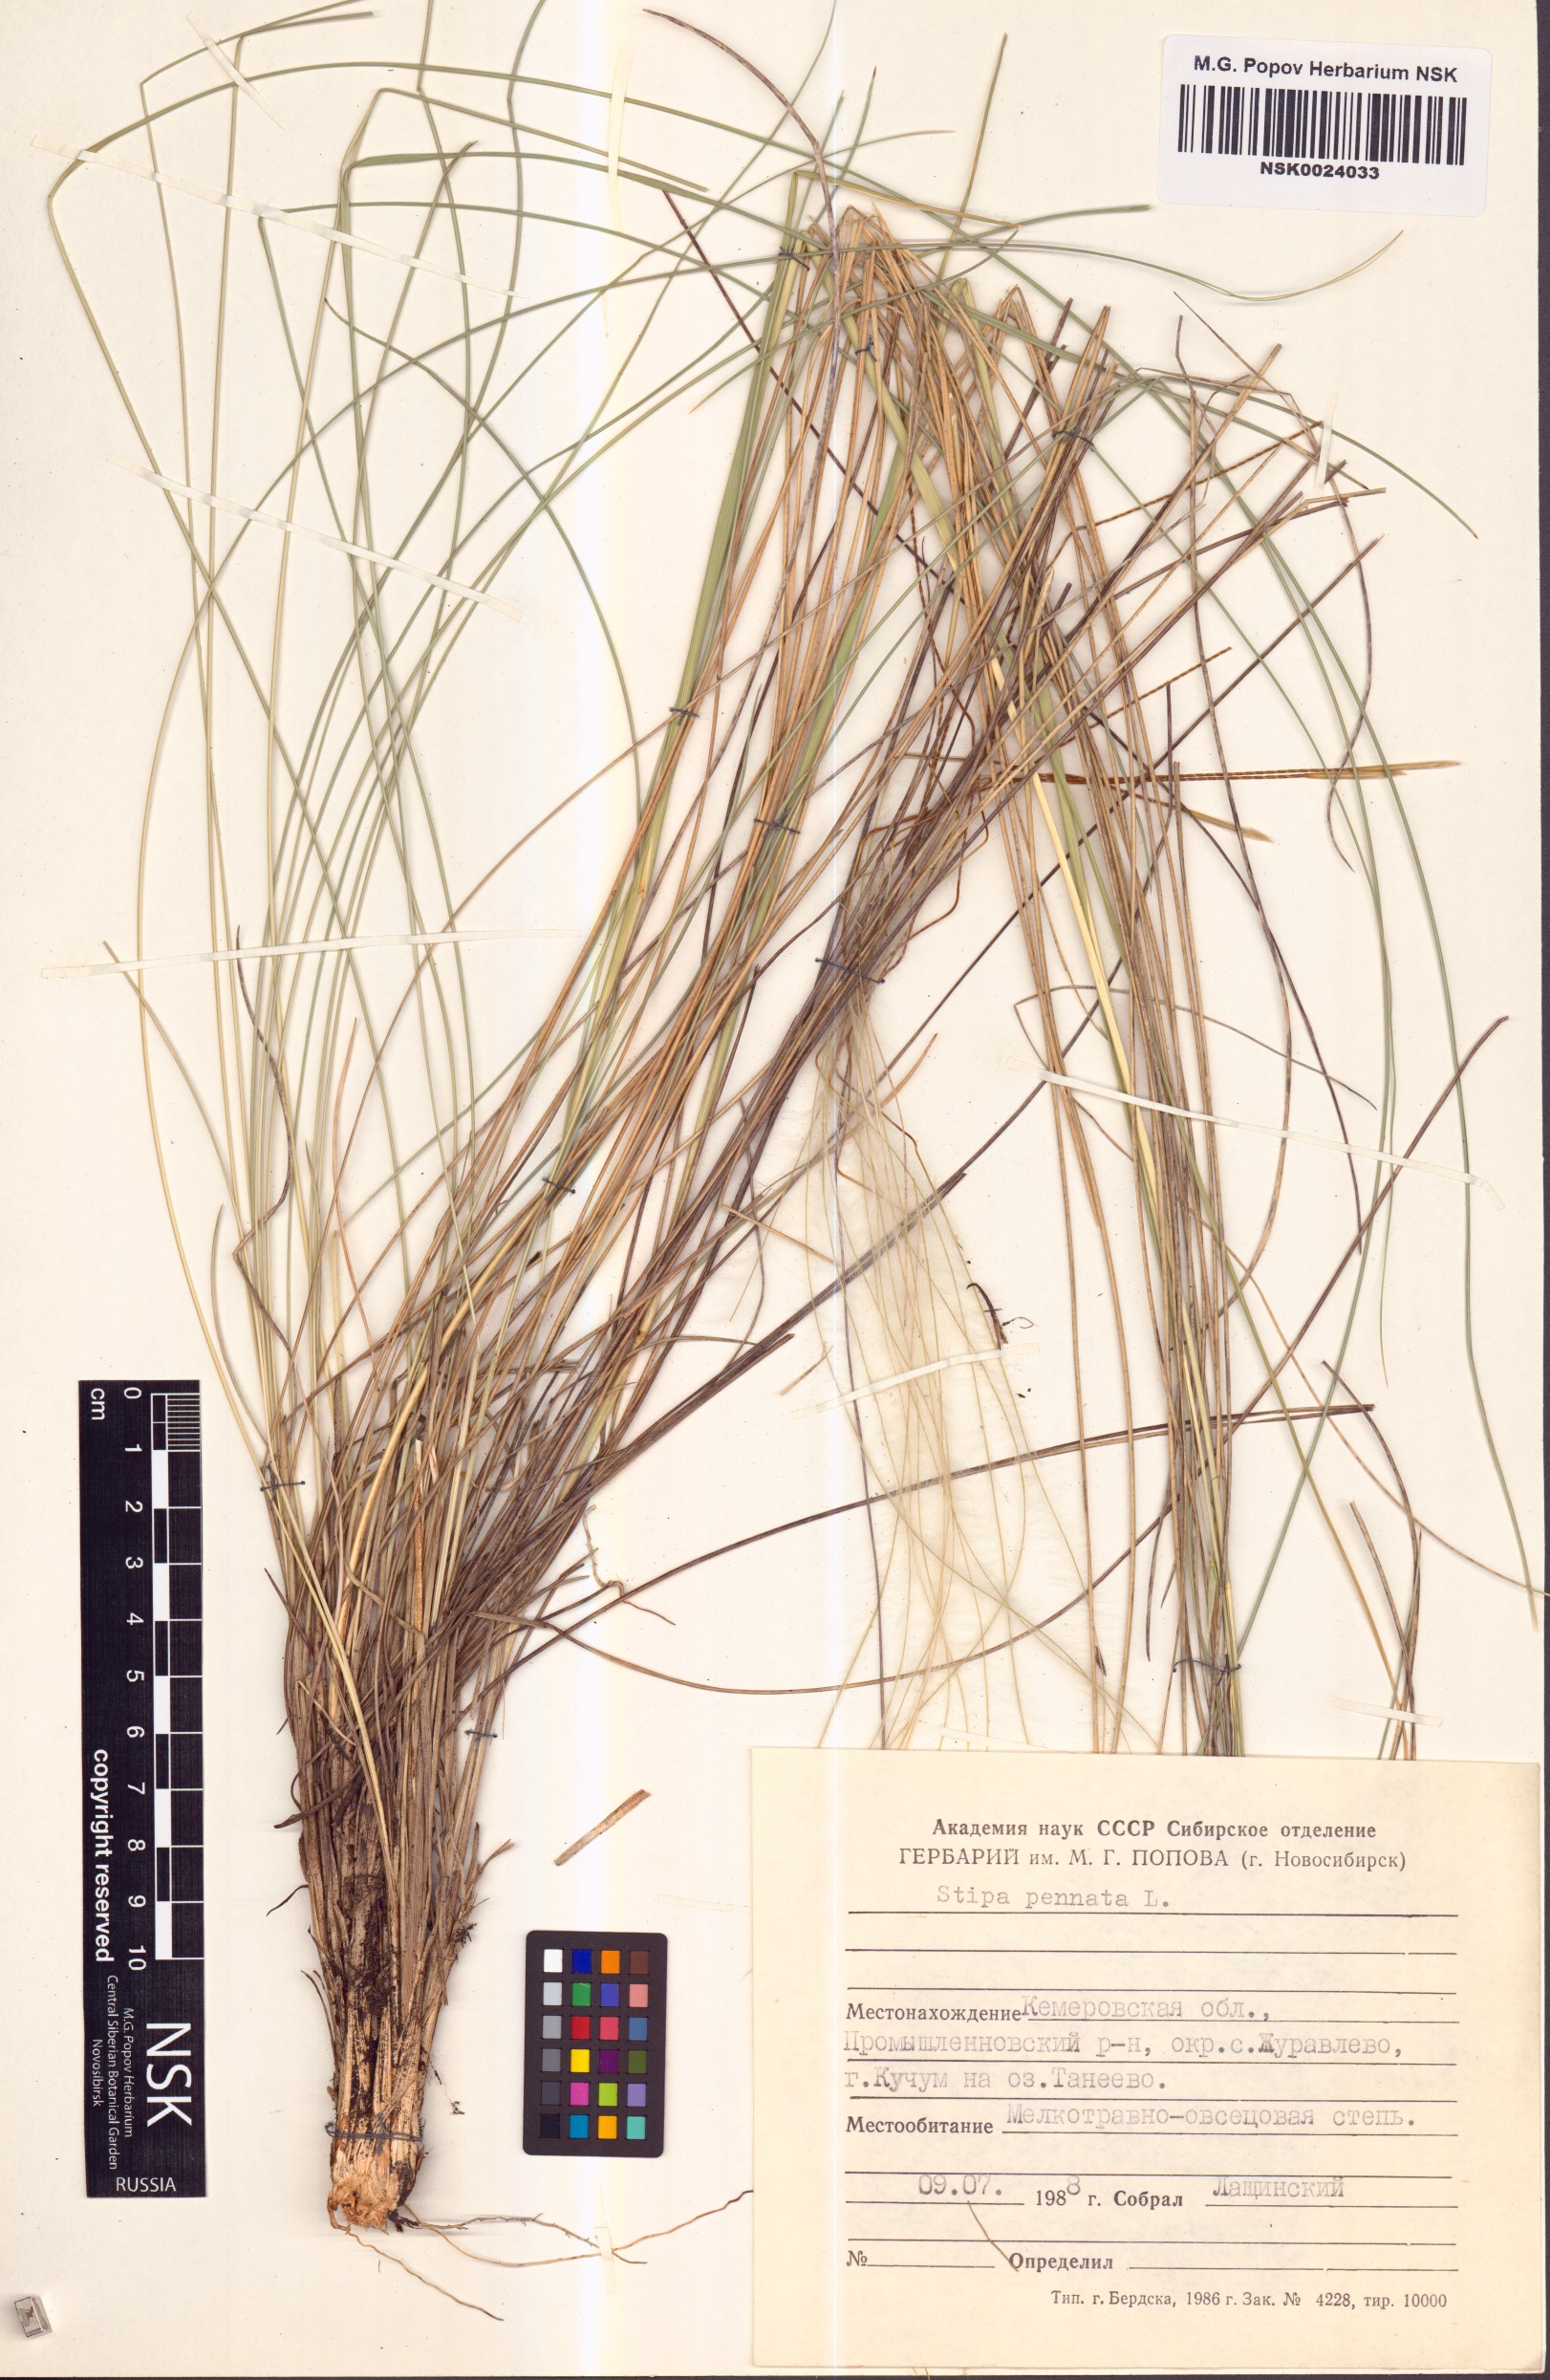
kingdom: Plantae
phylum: Tracheophyta
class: Liliopsida
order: Poales
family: Poaceae
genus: Stipa
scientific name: Stipa pennata
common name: European feather grass
